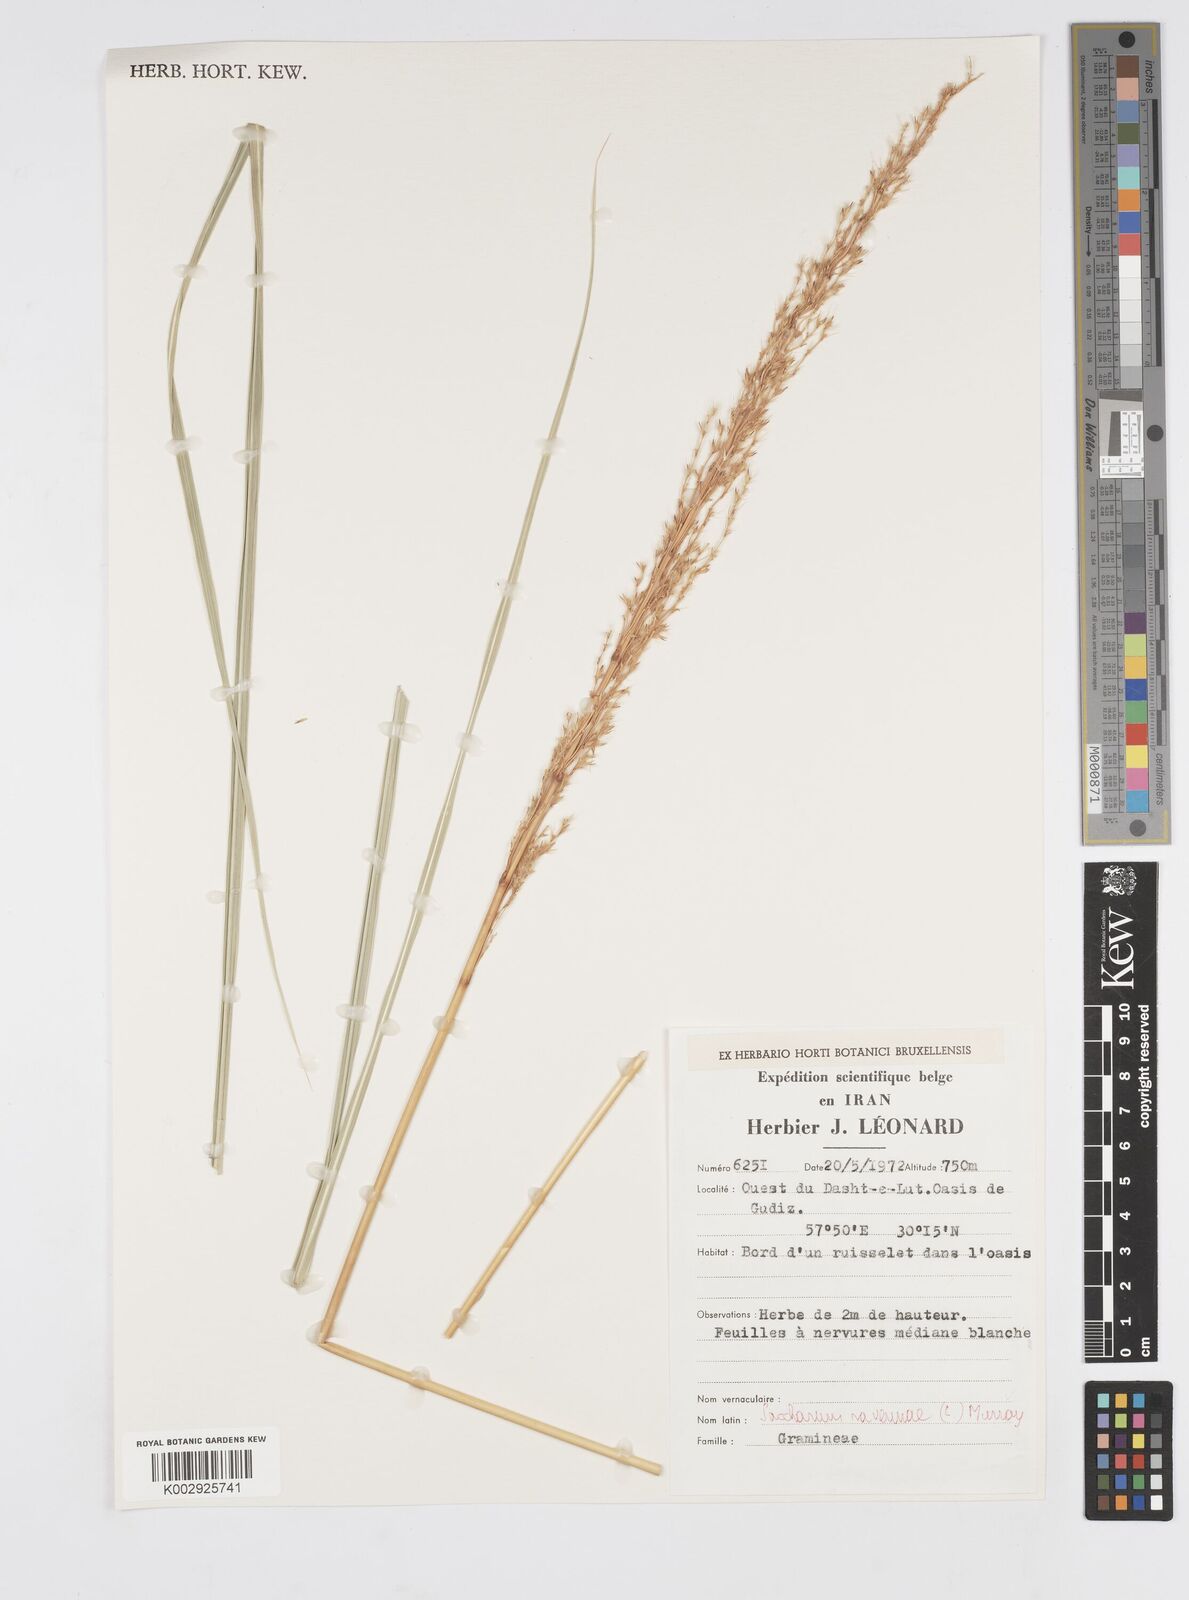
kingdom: Plantae
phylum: Tracheophyta
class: Liliopsida
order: Poales
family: Poaceae
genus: Tripidium
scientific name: Tripidium ravennae
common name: Ravenna grass
